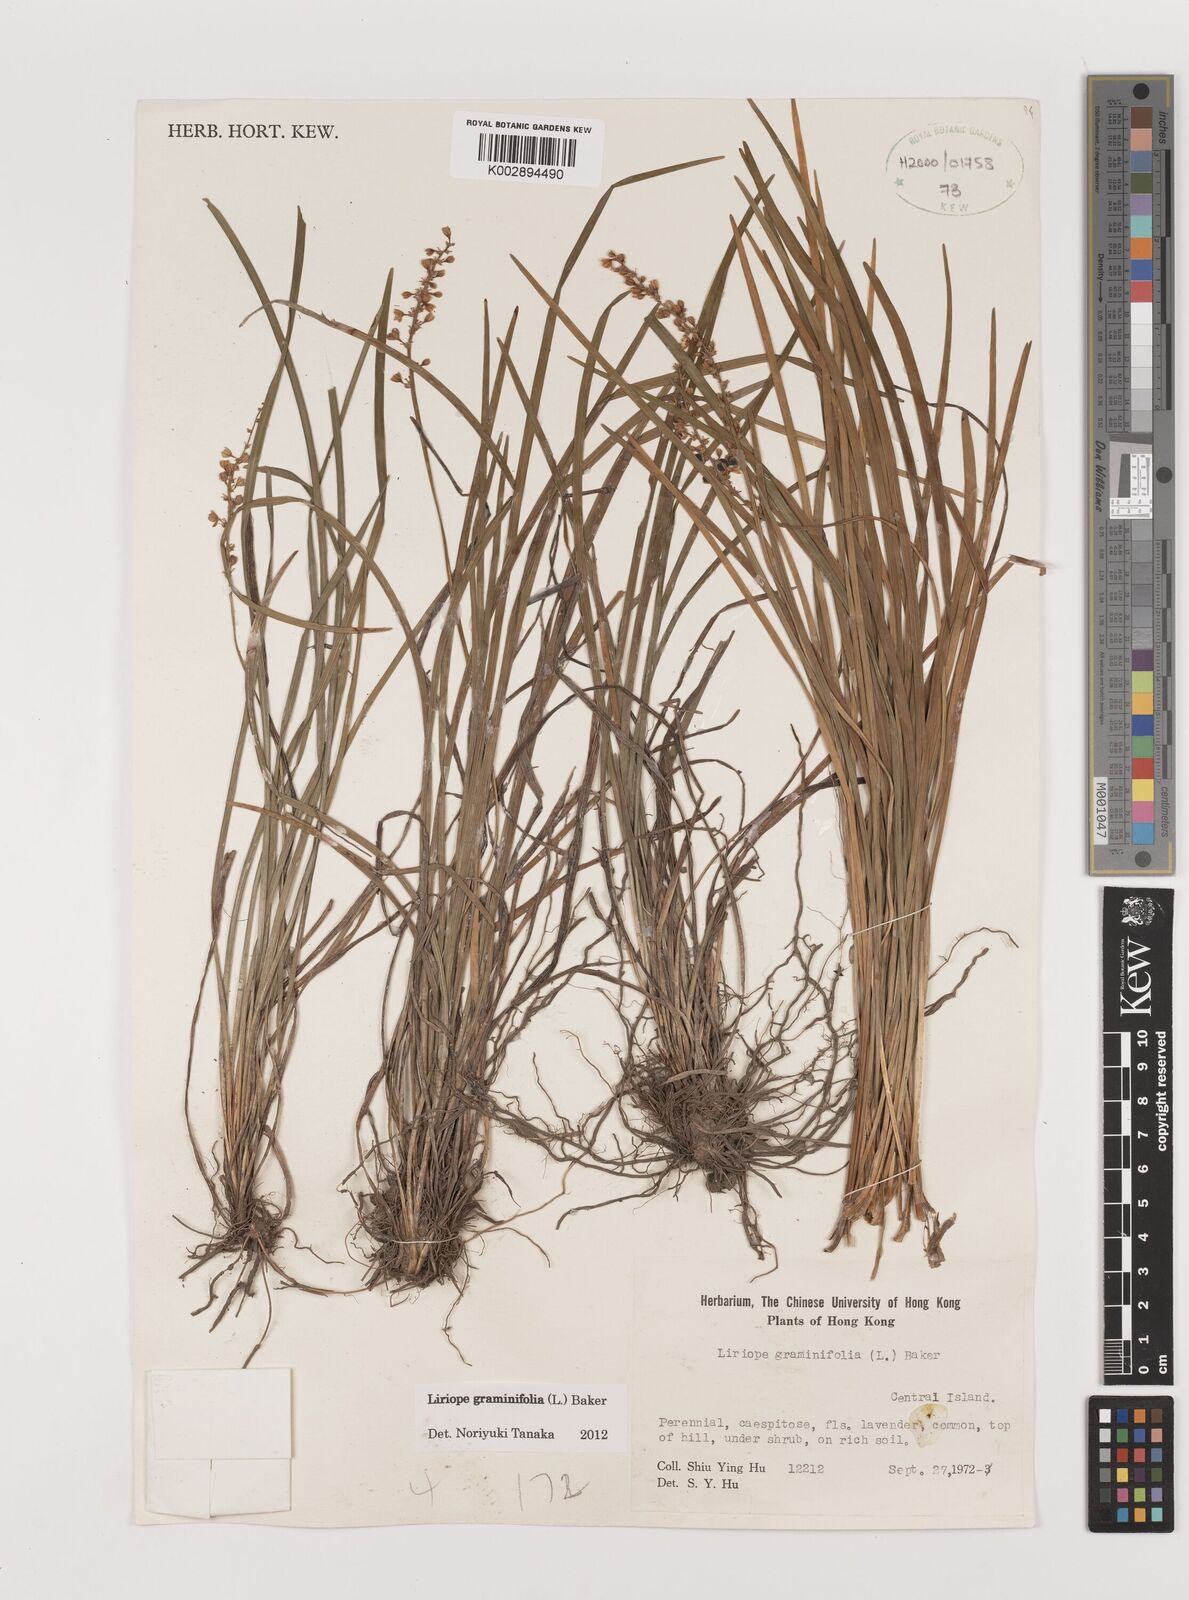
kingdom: Plantae
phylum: Tracheophyta
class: Liliopsida
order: Asparagales
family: Asparagaceae
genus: Liriope
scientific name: Liriope graminifolia
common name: Lilyturf
